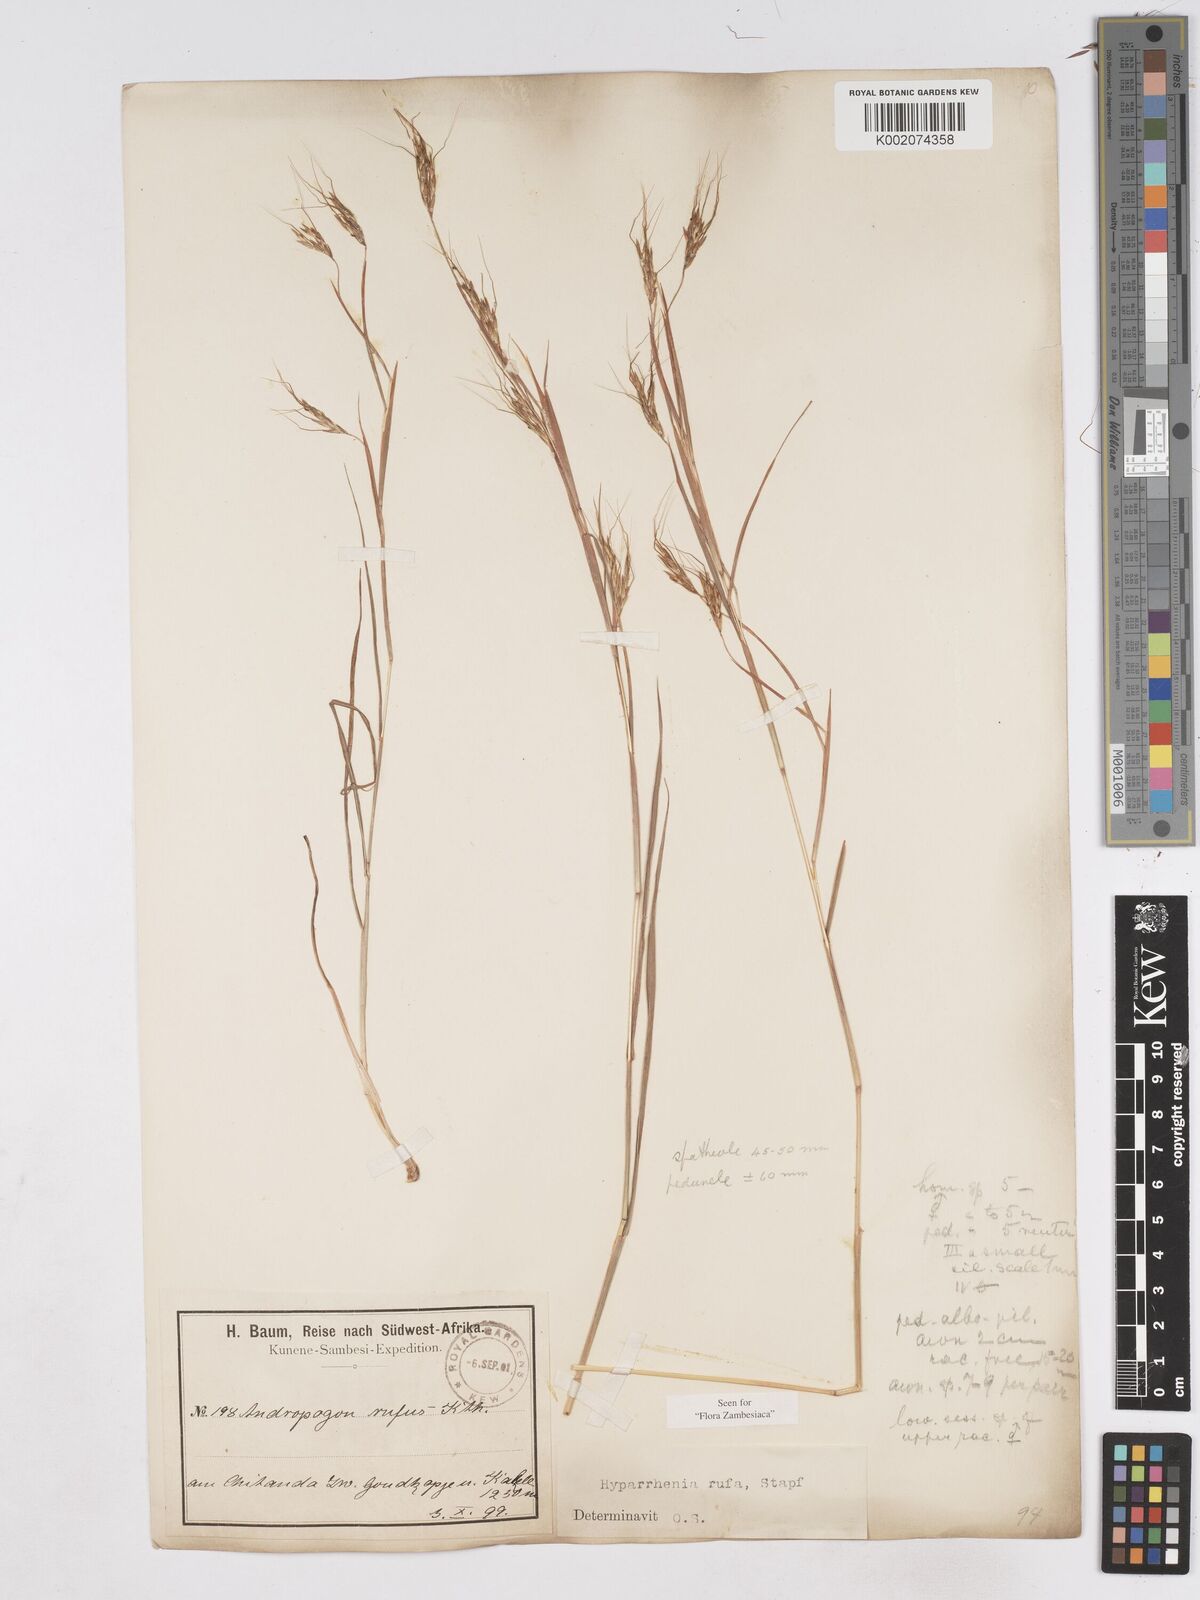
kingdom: Plantae
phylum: Tracheophyta
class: Liliopsida
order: Poales
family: Poaceae
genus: Hyparrhenia
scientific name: Hyparrhenia rufa
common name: Jaraguagrass
